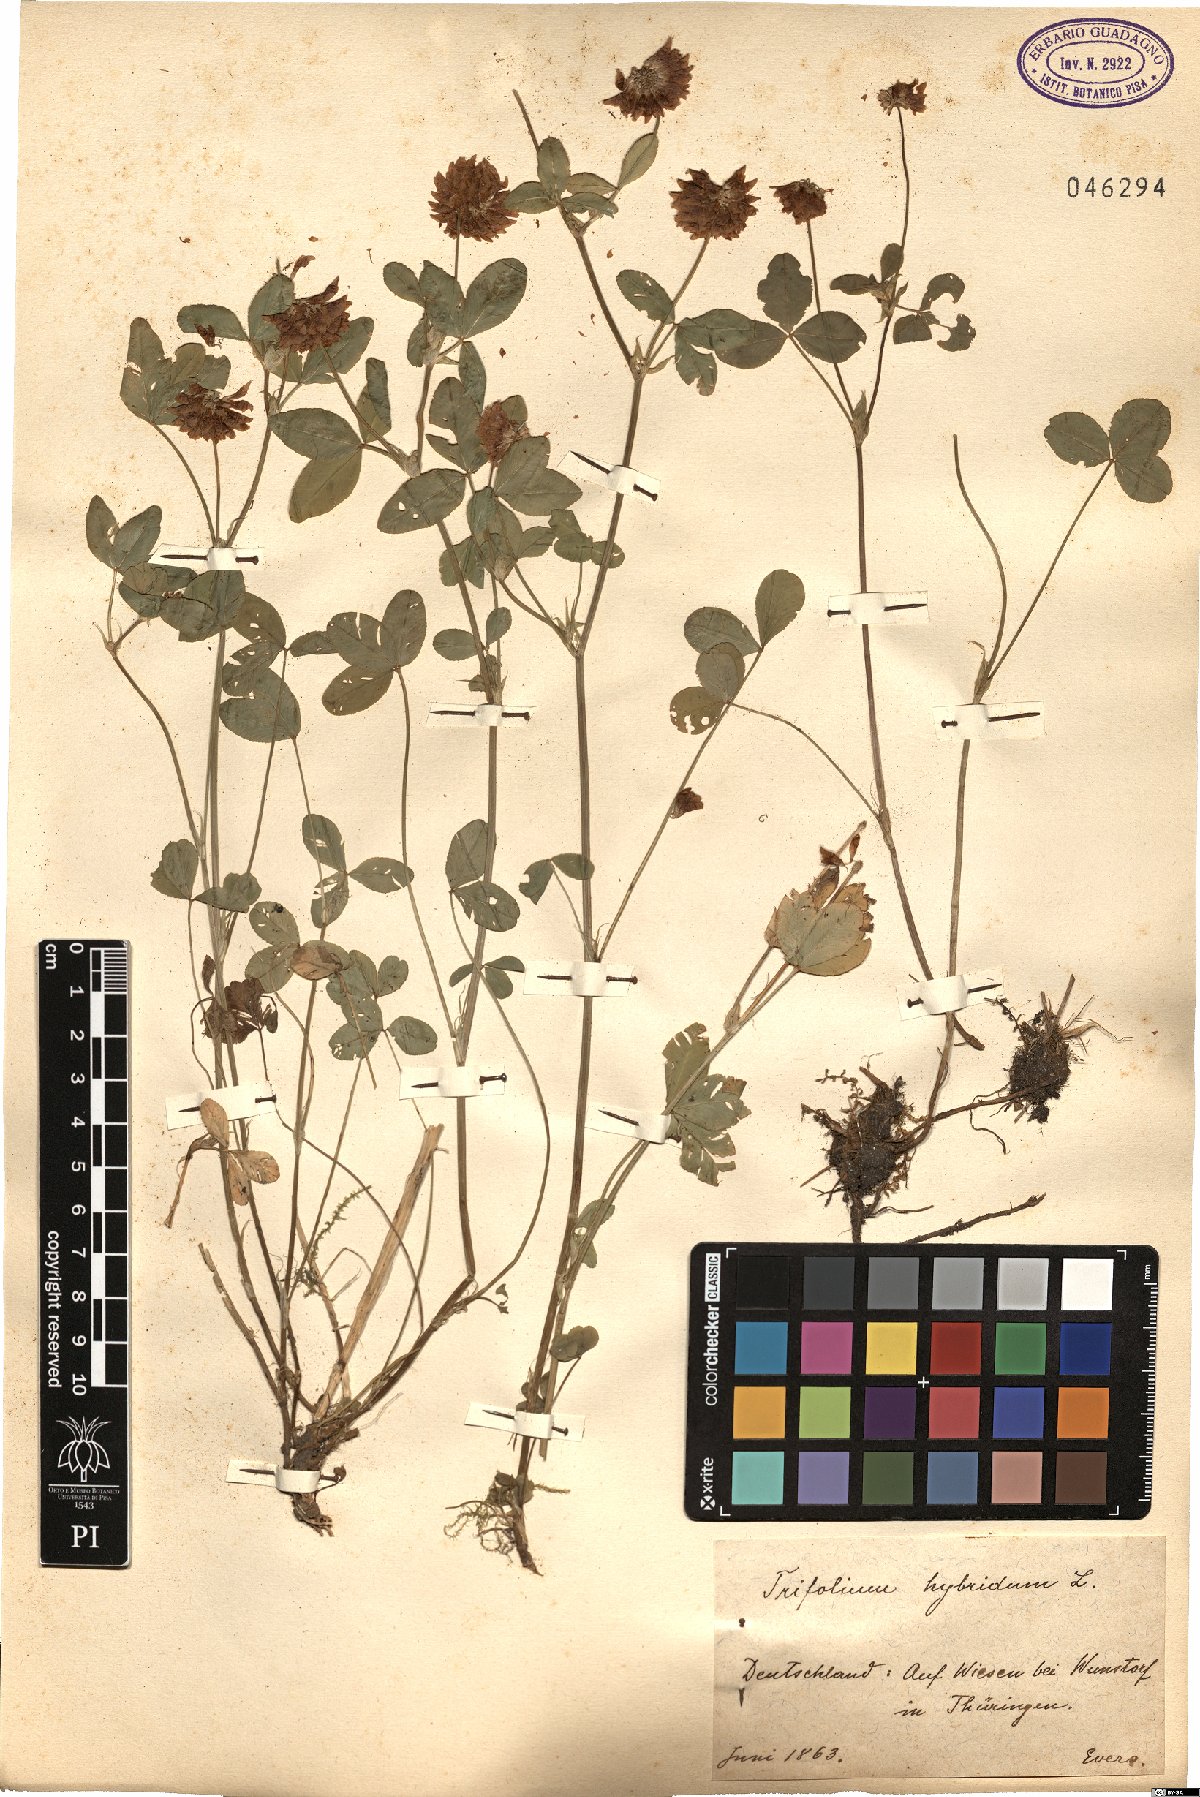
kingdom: Plantae
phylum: Tracheophyta
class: Magnoliopsida
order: Fabales
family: Fabaceae
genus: Trifolium
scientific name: Trifolium hybridum
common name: Alsike clover
